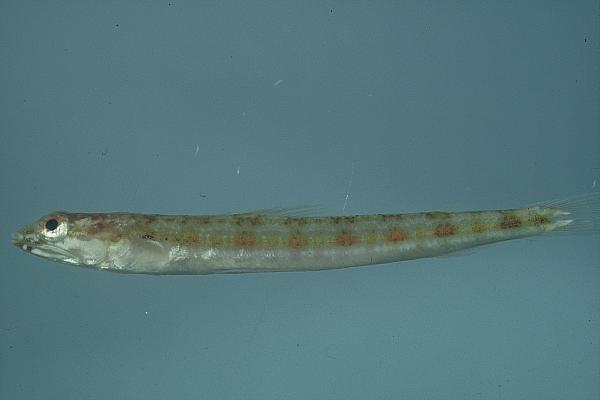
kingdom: Animalia
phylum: Chordata
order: Aulopiformes
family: Synodontidae
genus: Synodus
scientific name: Synodus variegatus
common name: Variegated lizardfish
